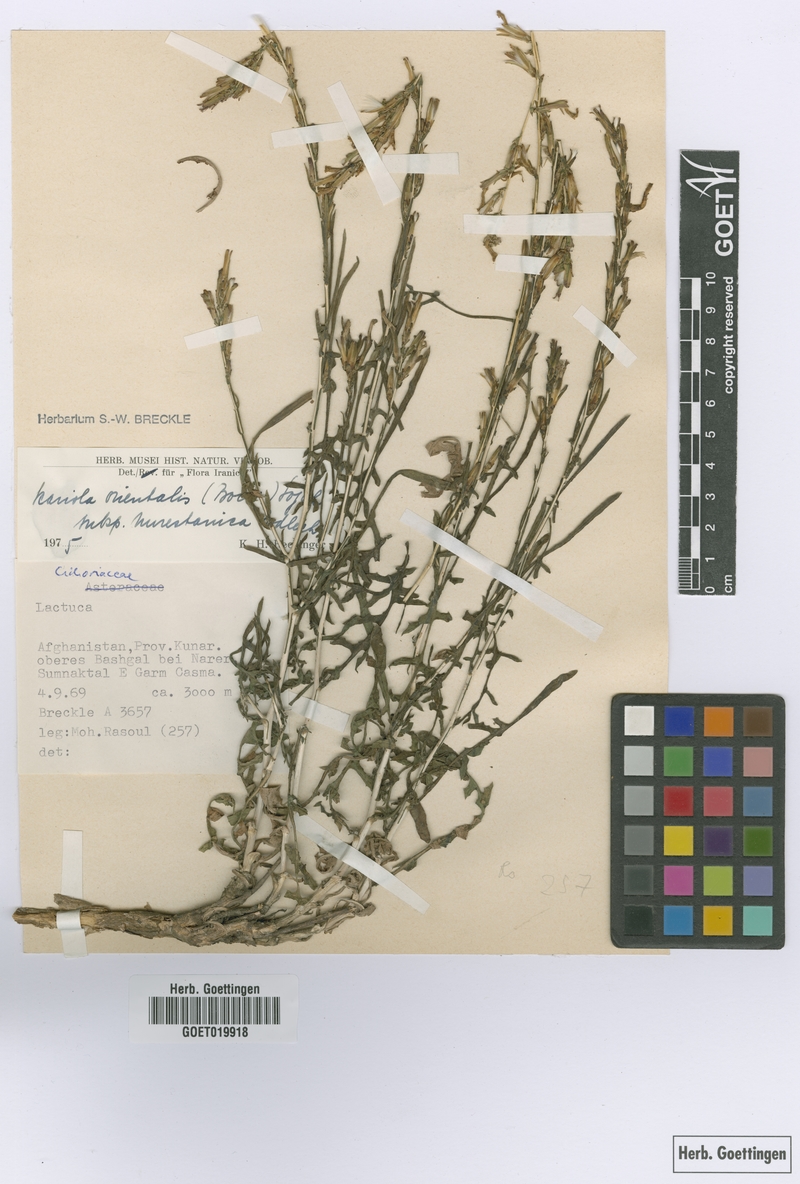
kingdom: Plantae
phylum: Tracheophyta
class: Magnoliopsida
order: Asterales
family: Asteraceae
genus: Lactuca
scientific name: Lactuca orientalis
